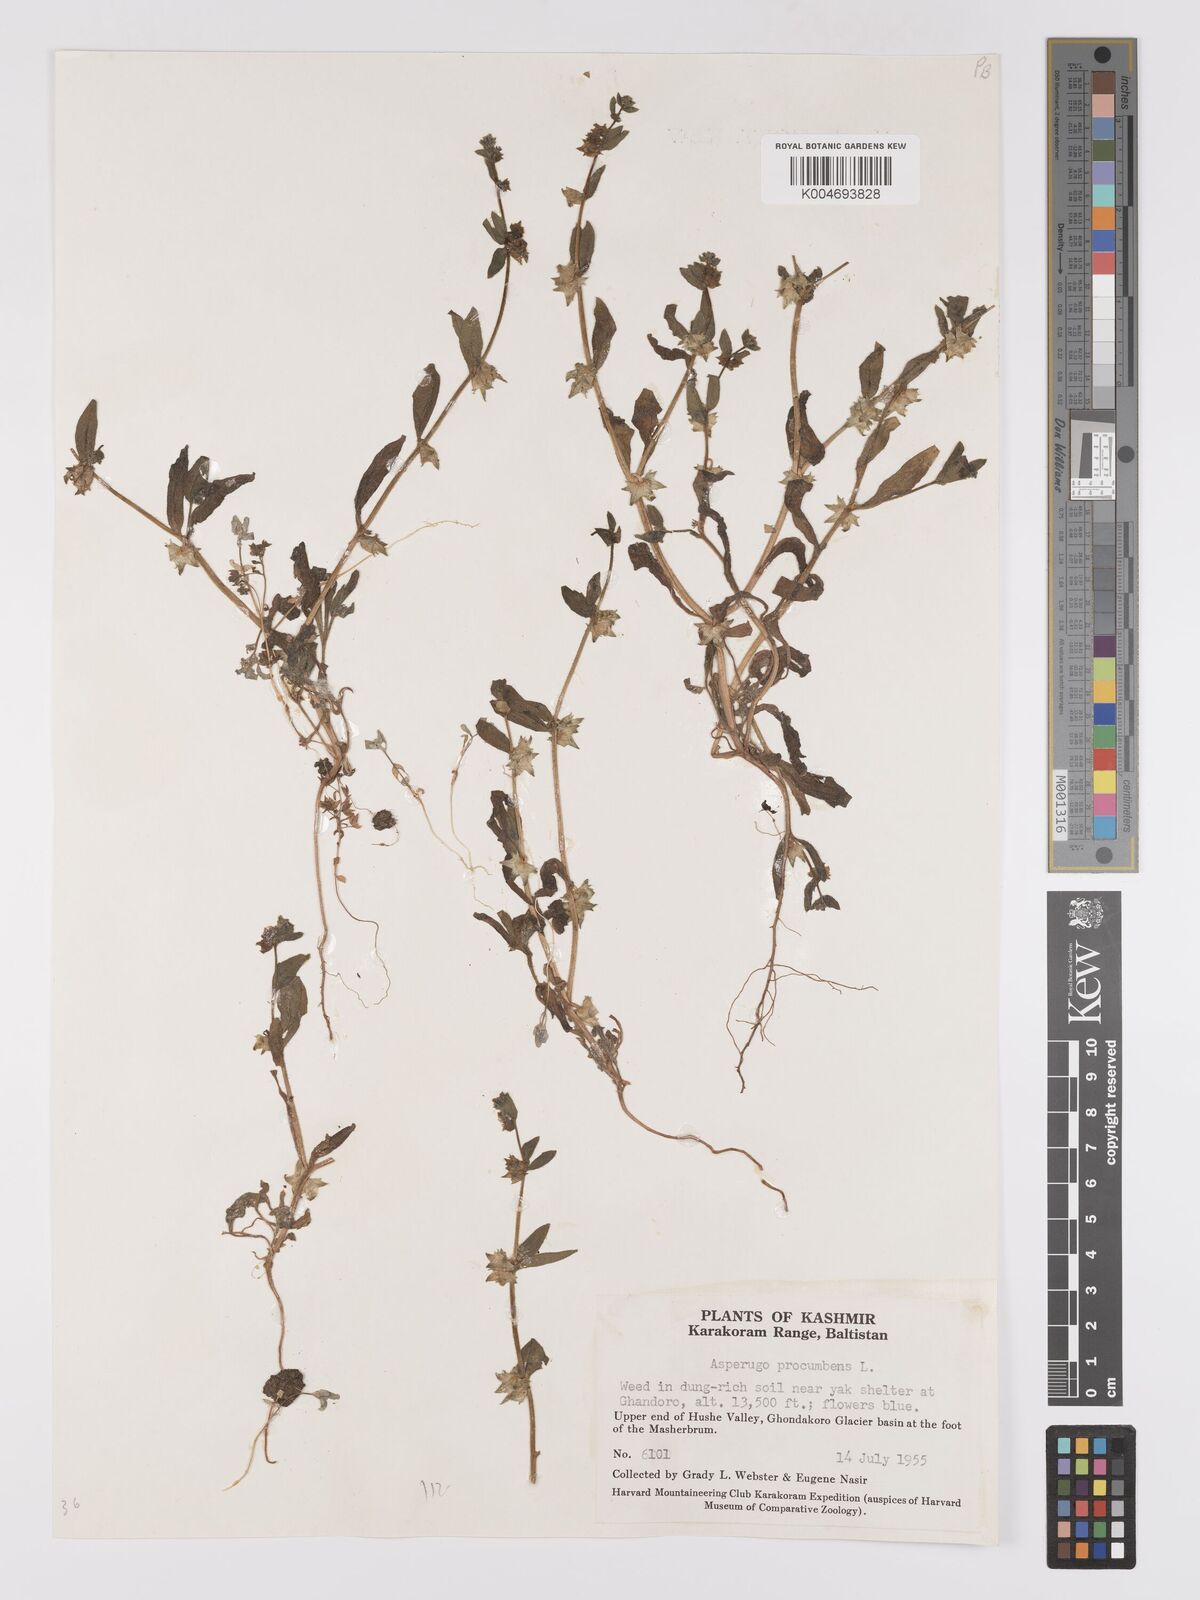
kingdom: Plantae
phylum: Tracheophyta
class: Magnoliopsida
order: Boraginales
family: Boraginaceae
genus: Asperugo
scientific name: Asperugo procumbens
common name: Madwort
